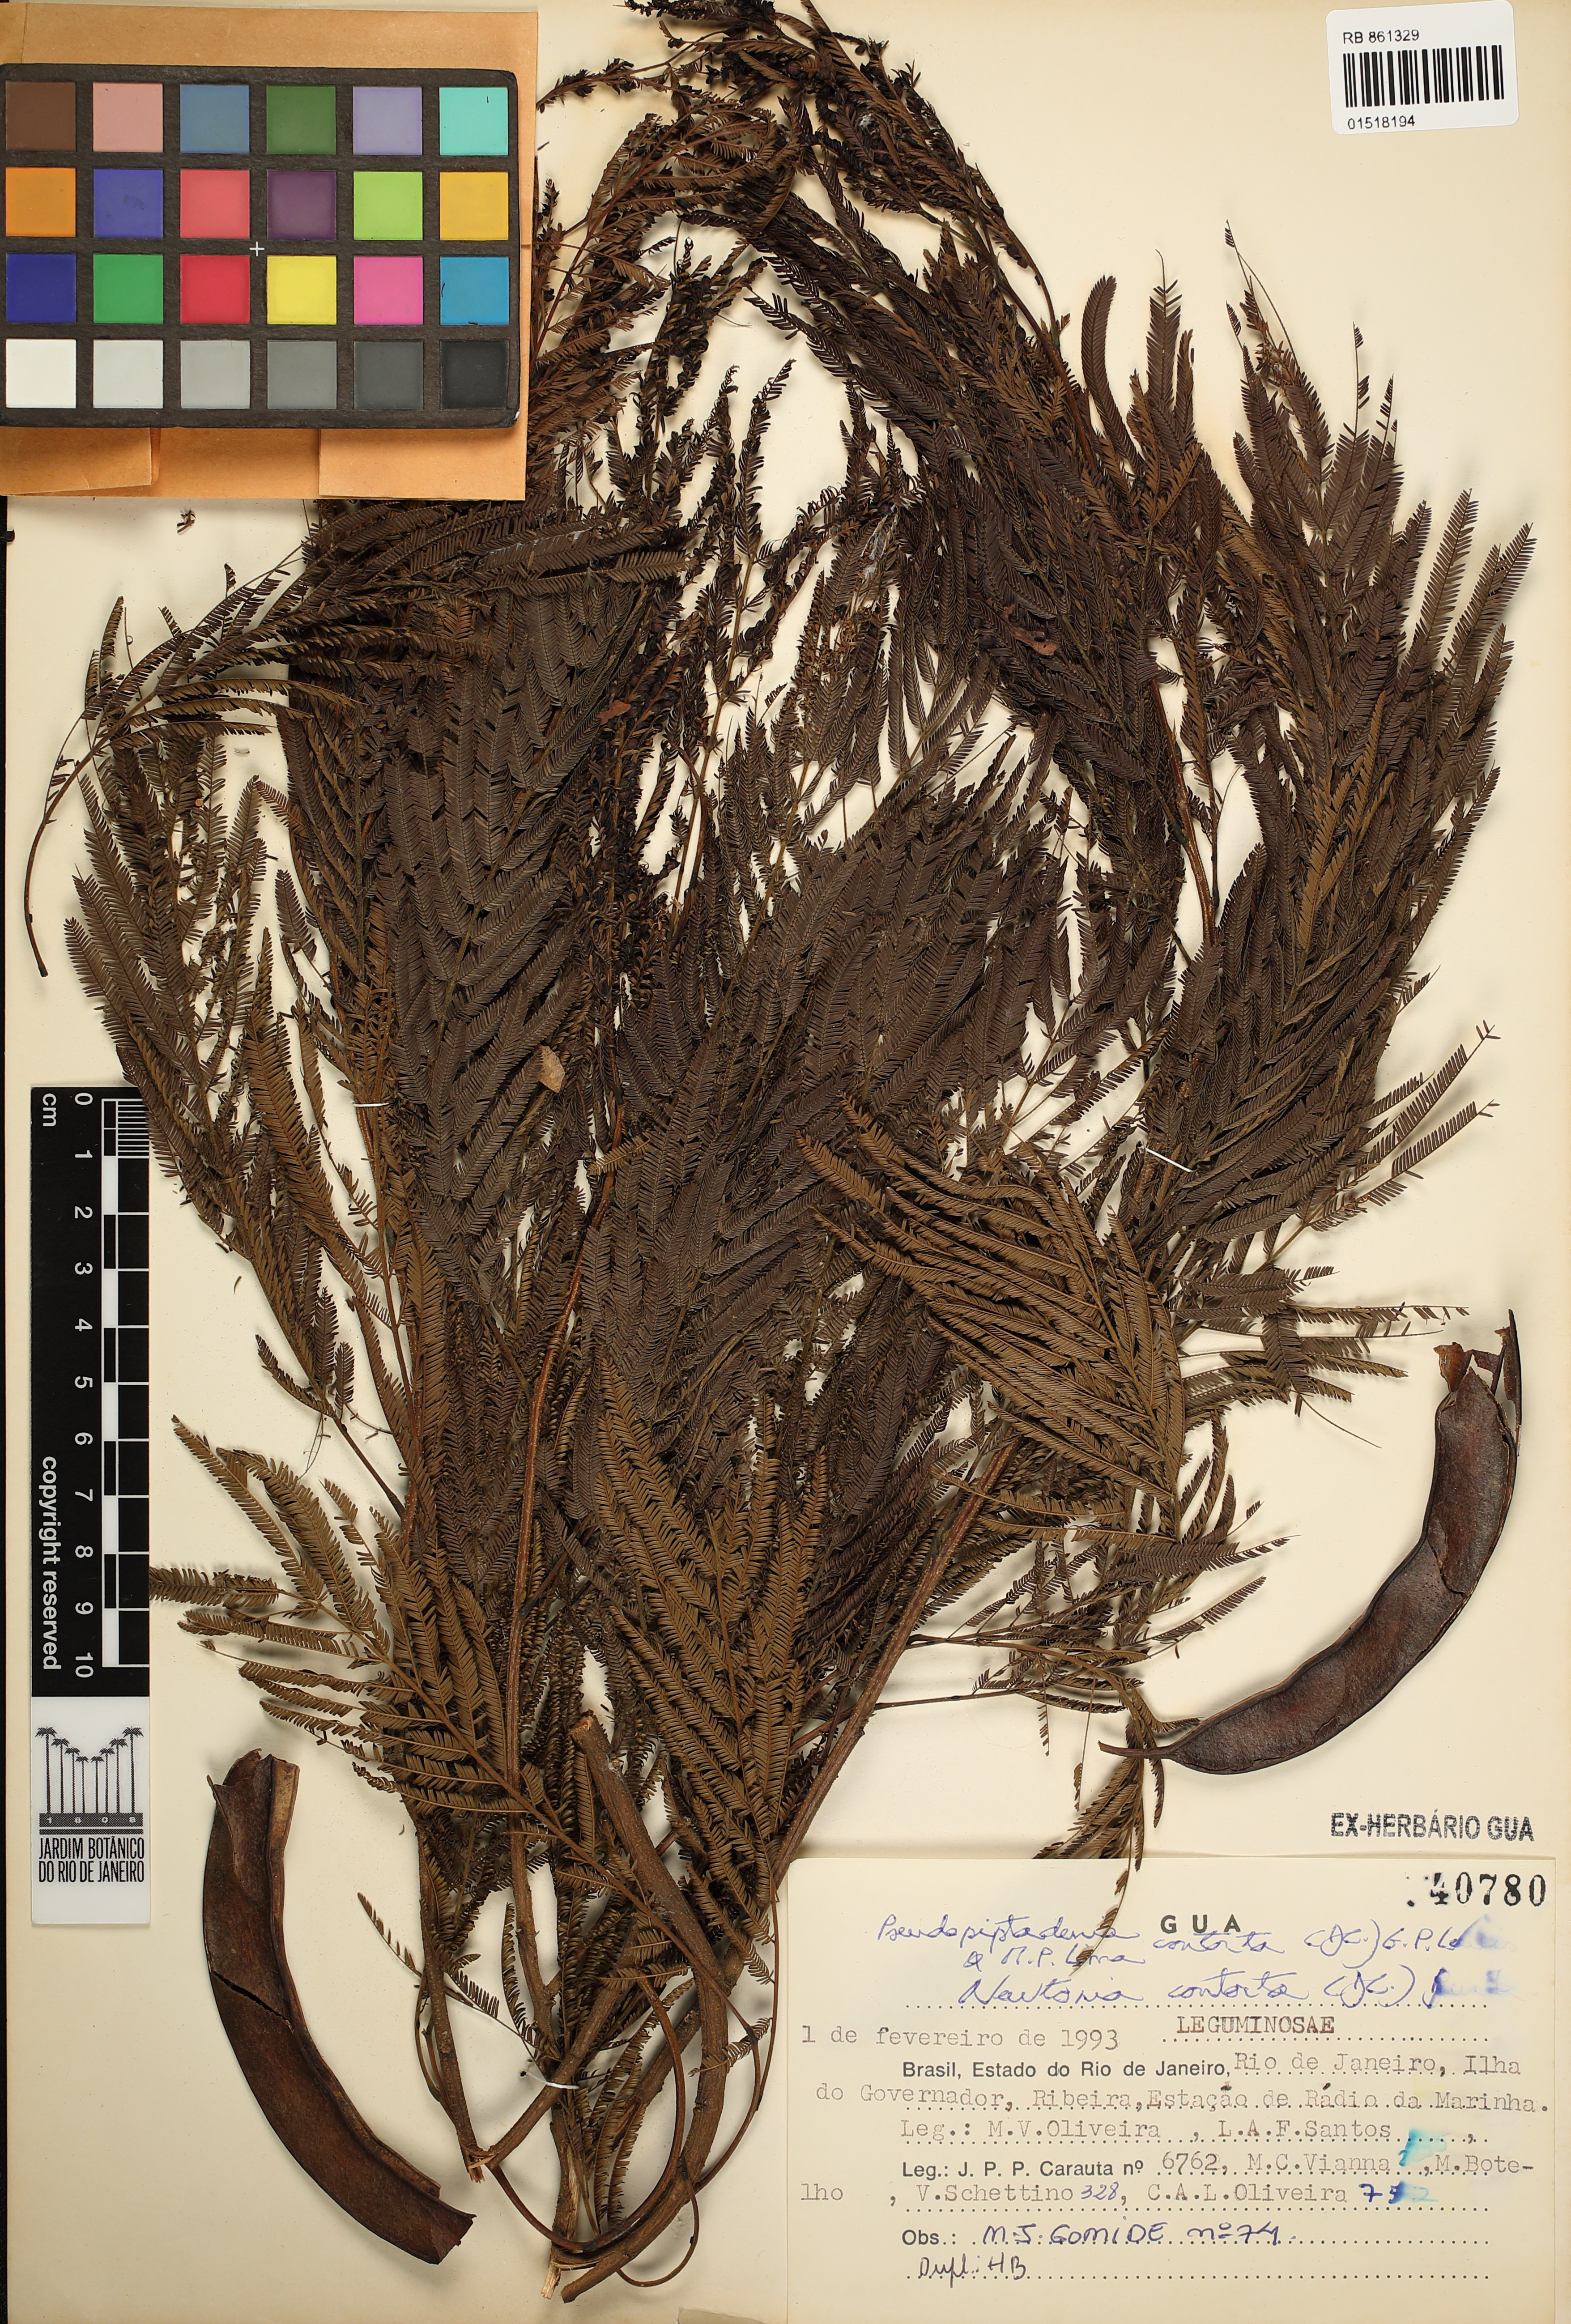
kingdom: Plantae
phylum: Tracheophyta
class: Magnoliopsida
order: Fabales
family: Fabaceae
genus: Pseudopiptadenia
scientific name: Pseudopiptadenia contorta
